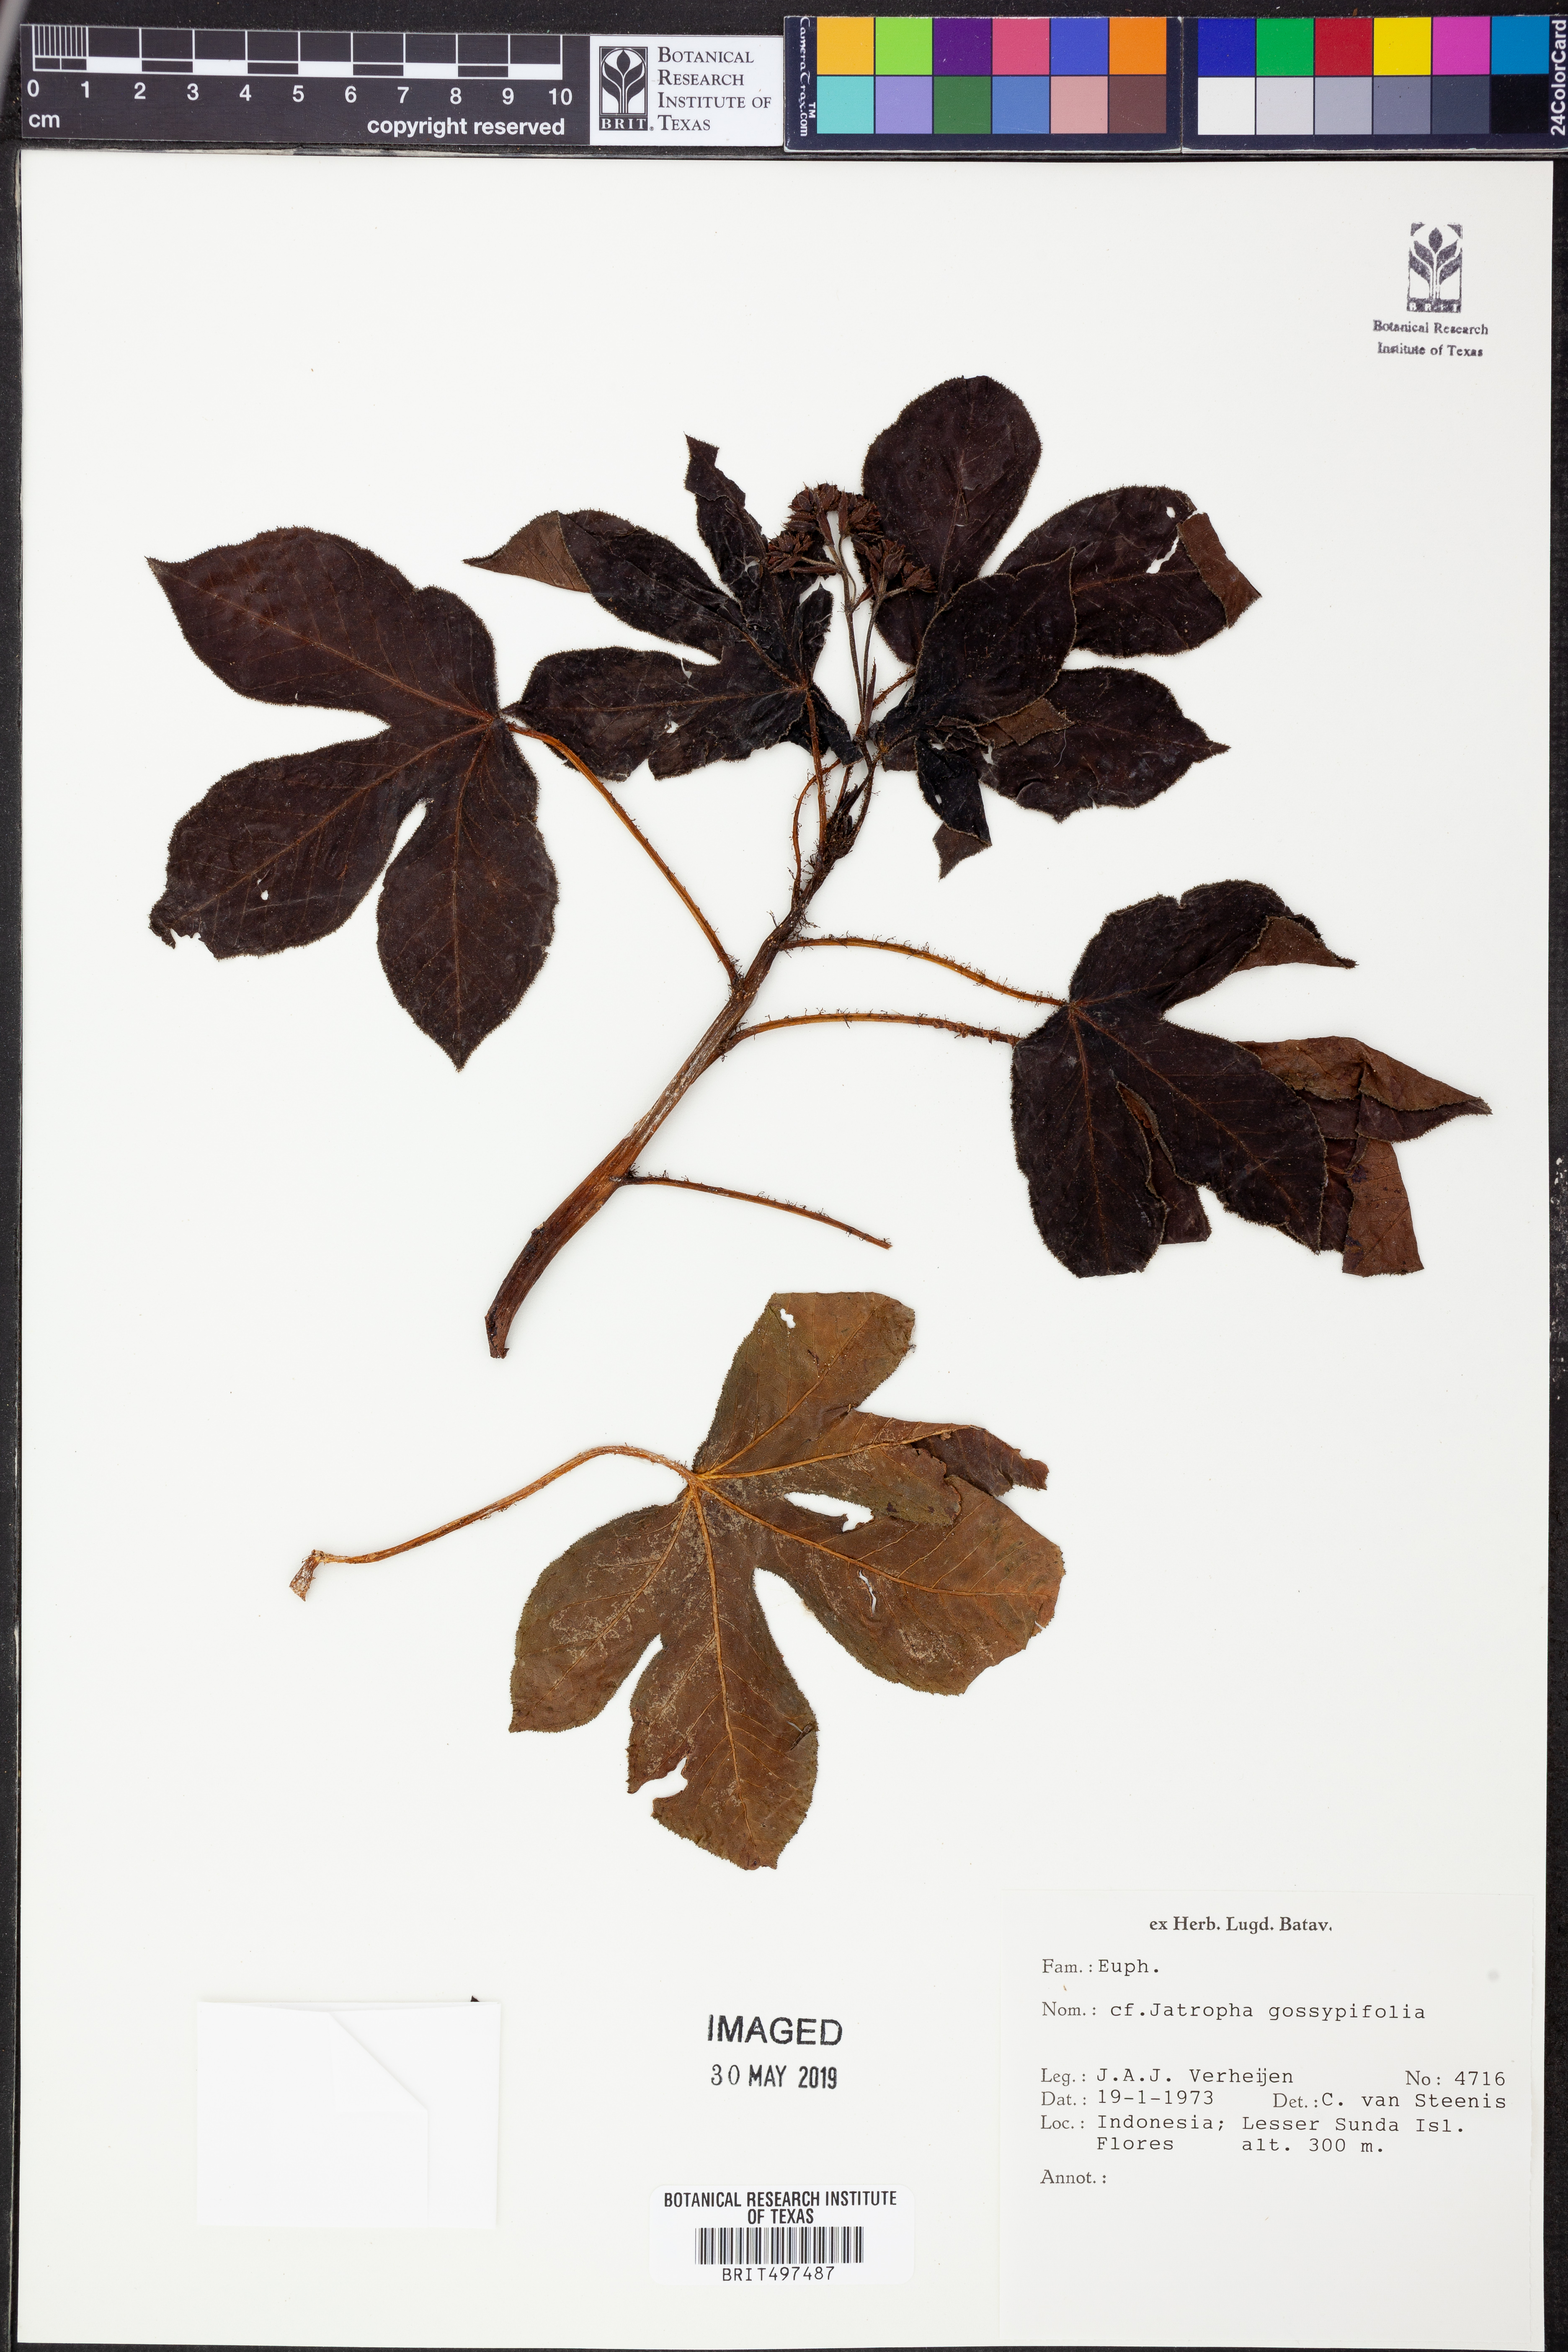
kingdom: Plantae
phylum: Tracheophyta
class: Magnoliopsida
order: Malpighiales
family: Euphorbiaceae
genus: Jatropha
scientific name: Jatropha gossypiifolia
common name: Bellyache bush
